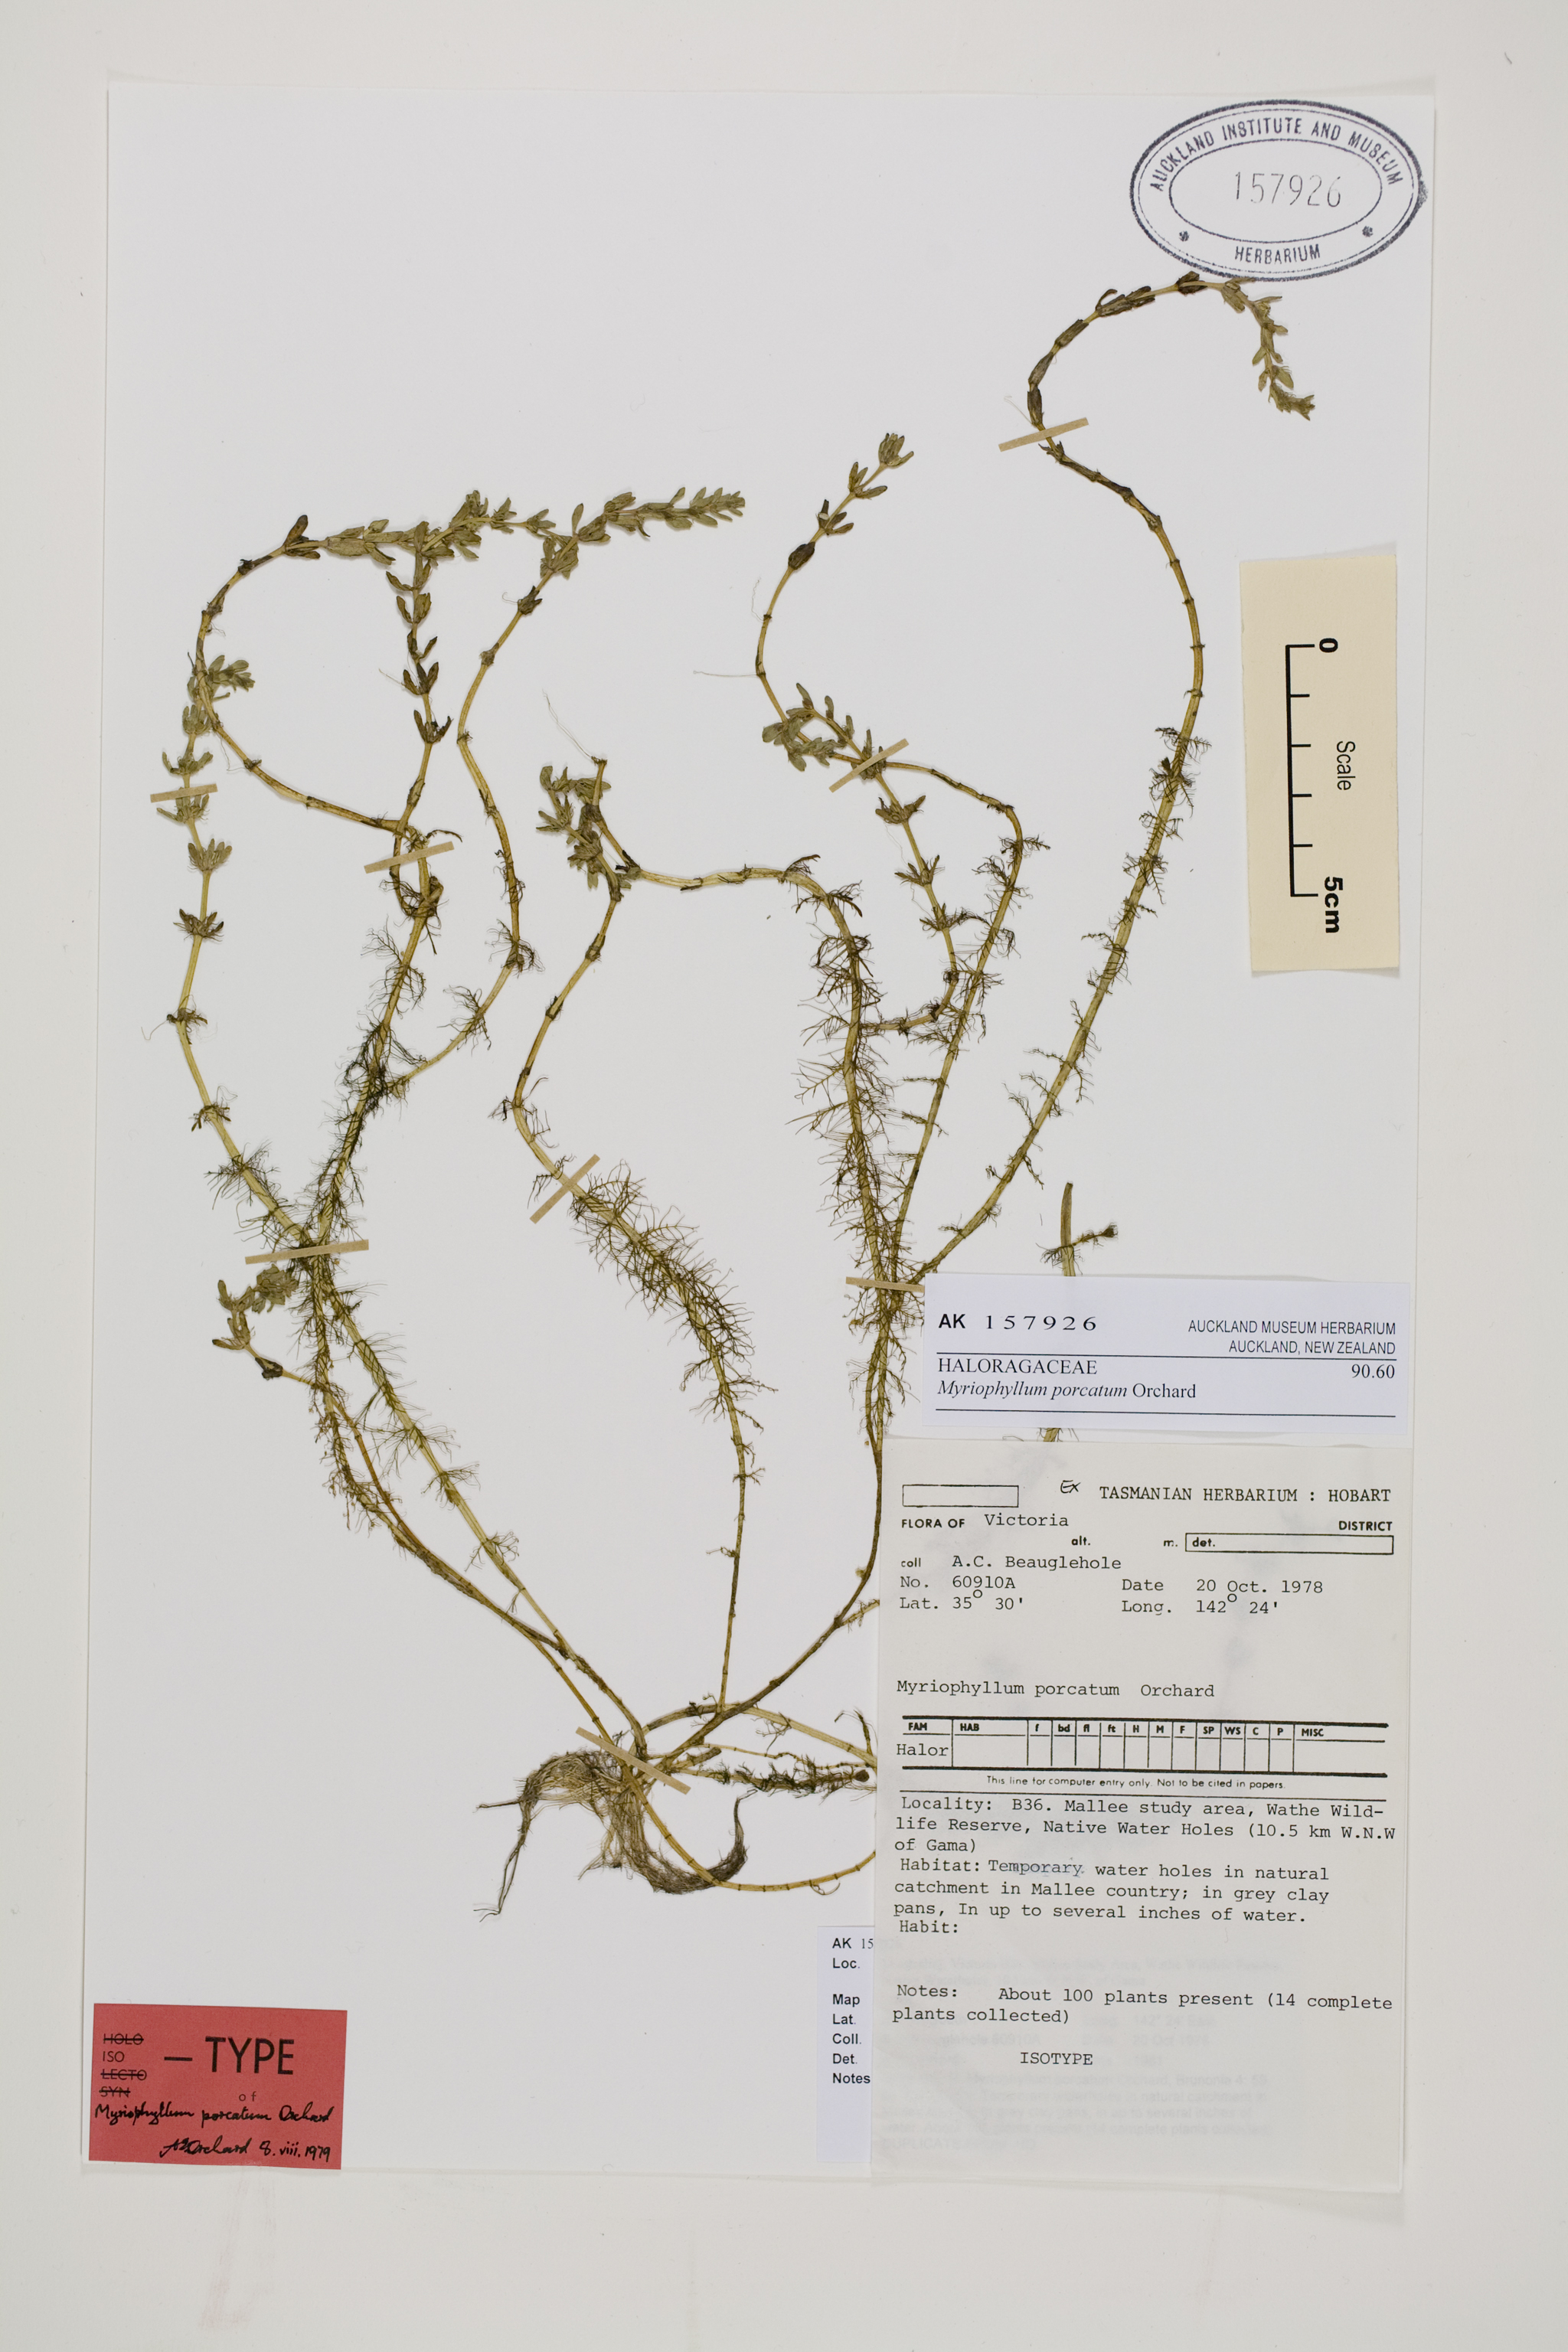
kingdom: Plantae
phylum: Tracheophyta
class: Magnoliopsida
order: Saxifragales
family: Haloragaceae
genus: Myriophyllum
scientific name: Myriophyllum porcatum
